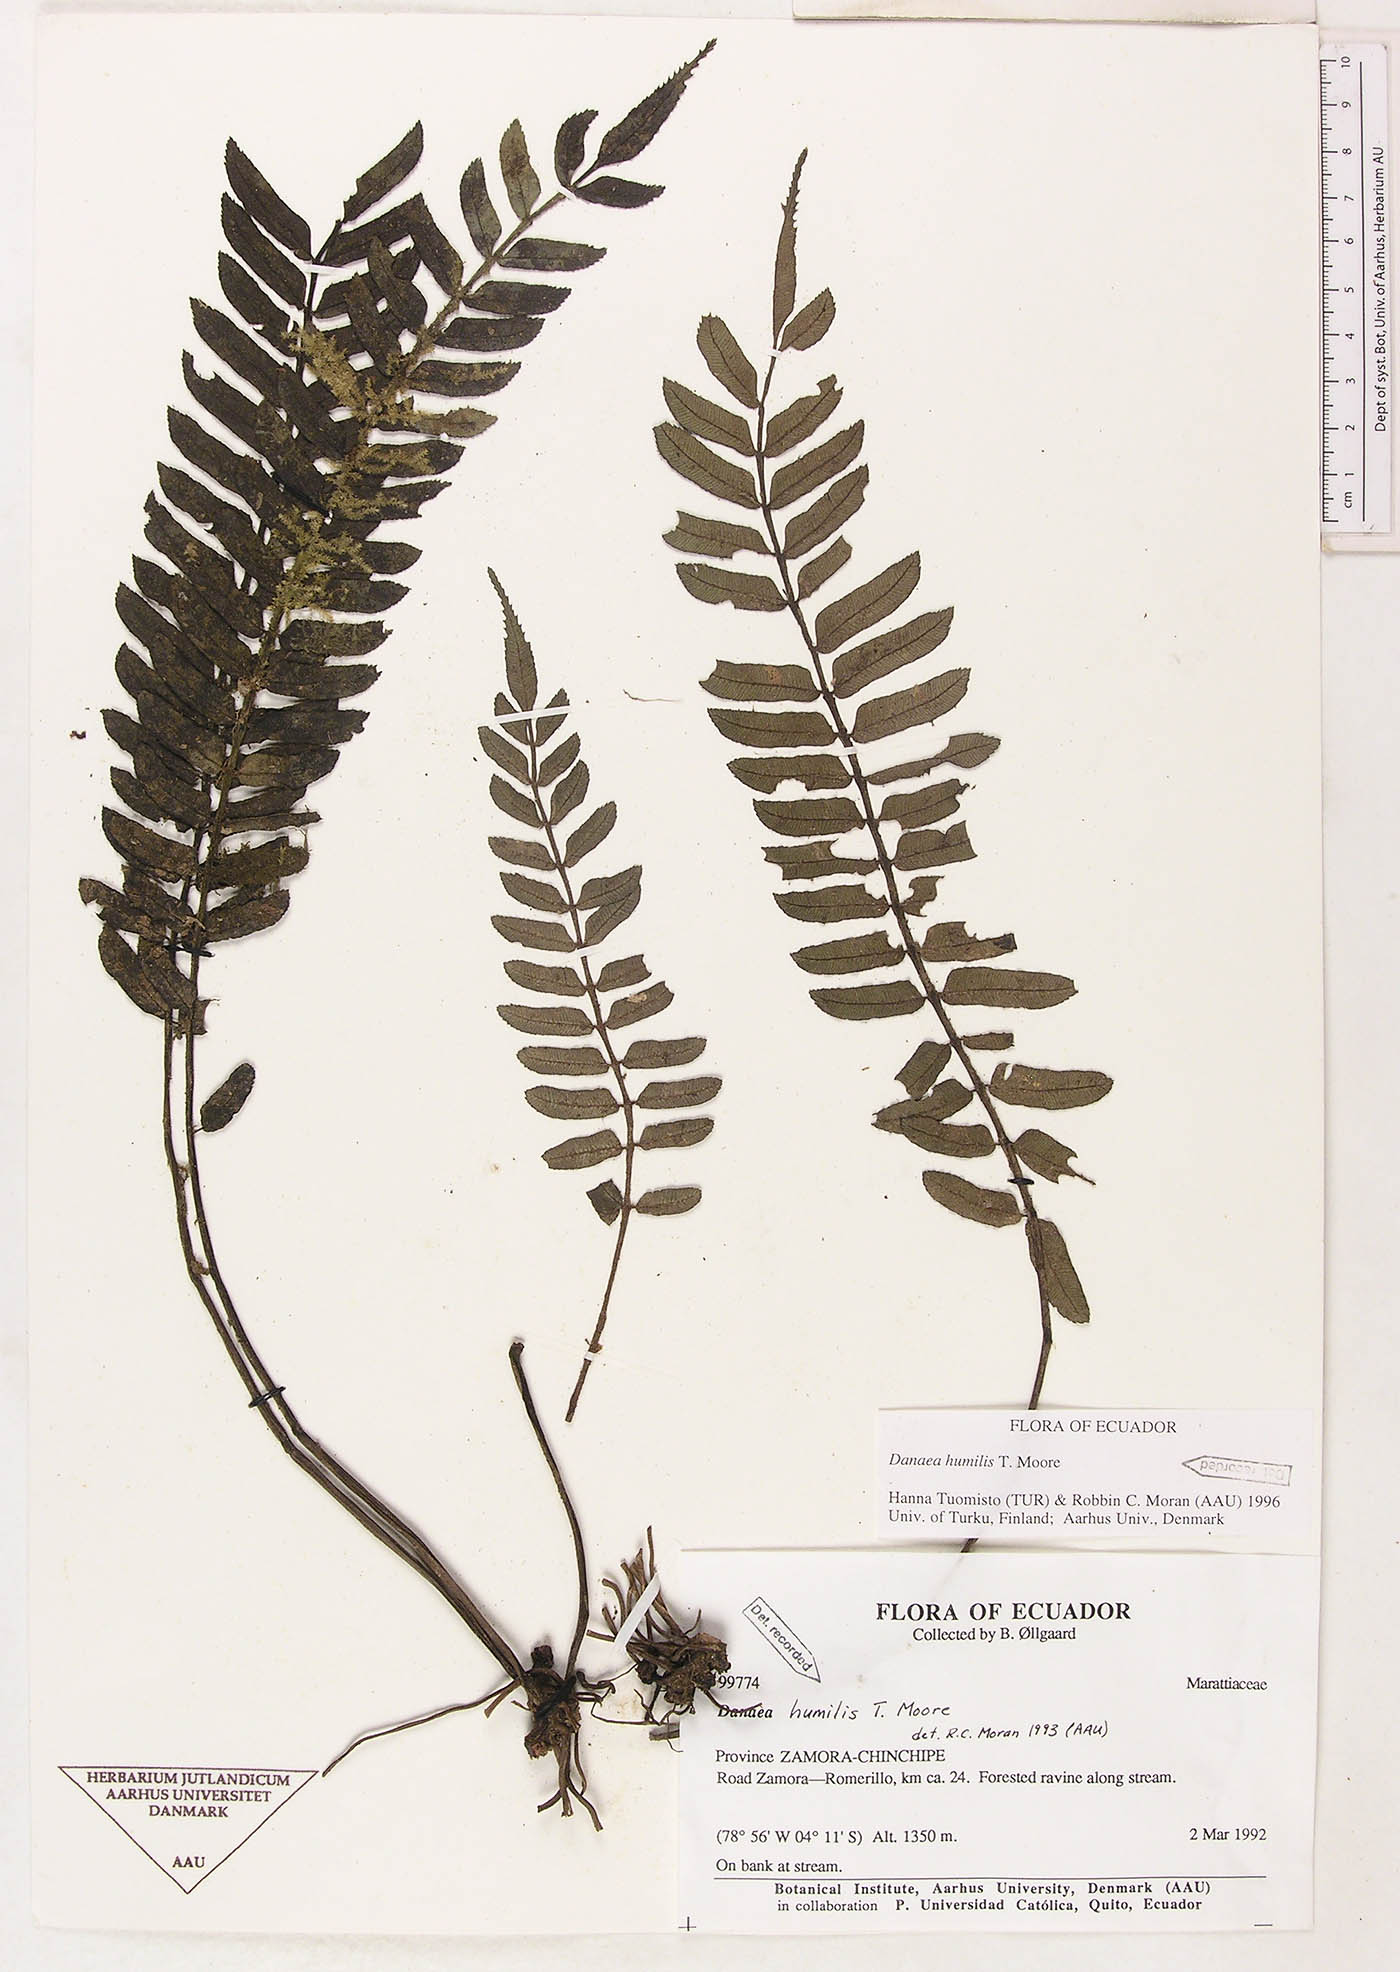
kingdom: Plantae
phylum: Tracheophyta
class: Polypodiopsida
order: Marattiales
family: Marattiaceae
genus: Danaea
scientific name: Danaea humilis
